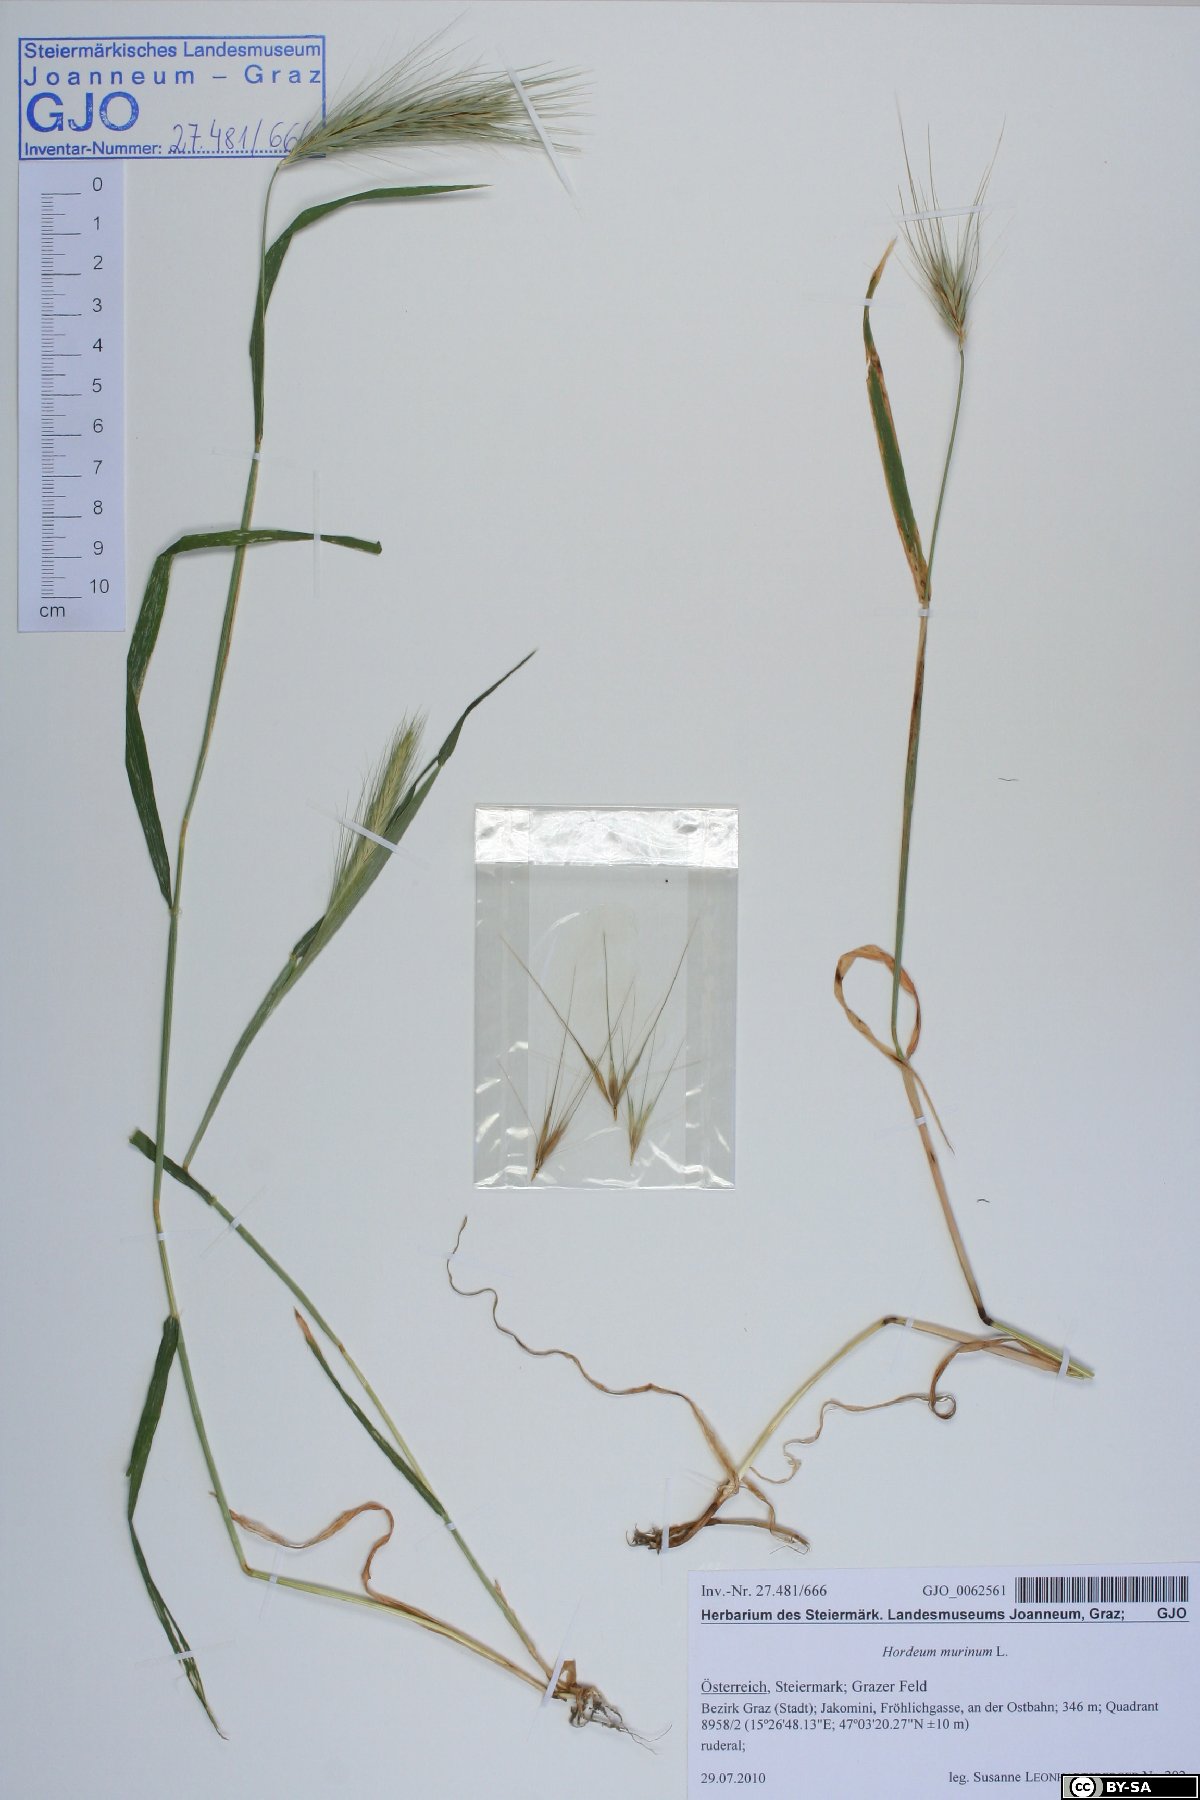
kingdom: Plantae
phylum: Tracheophyta
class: Liliopsida
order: Poales
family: Poaceae
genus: Hordeum
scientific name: Hordeum murinum
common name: Wall barley
